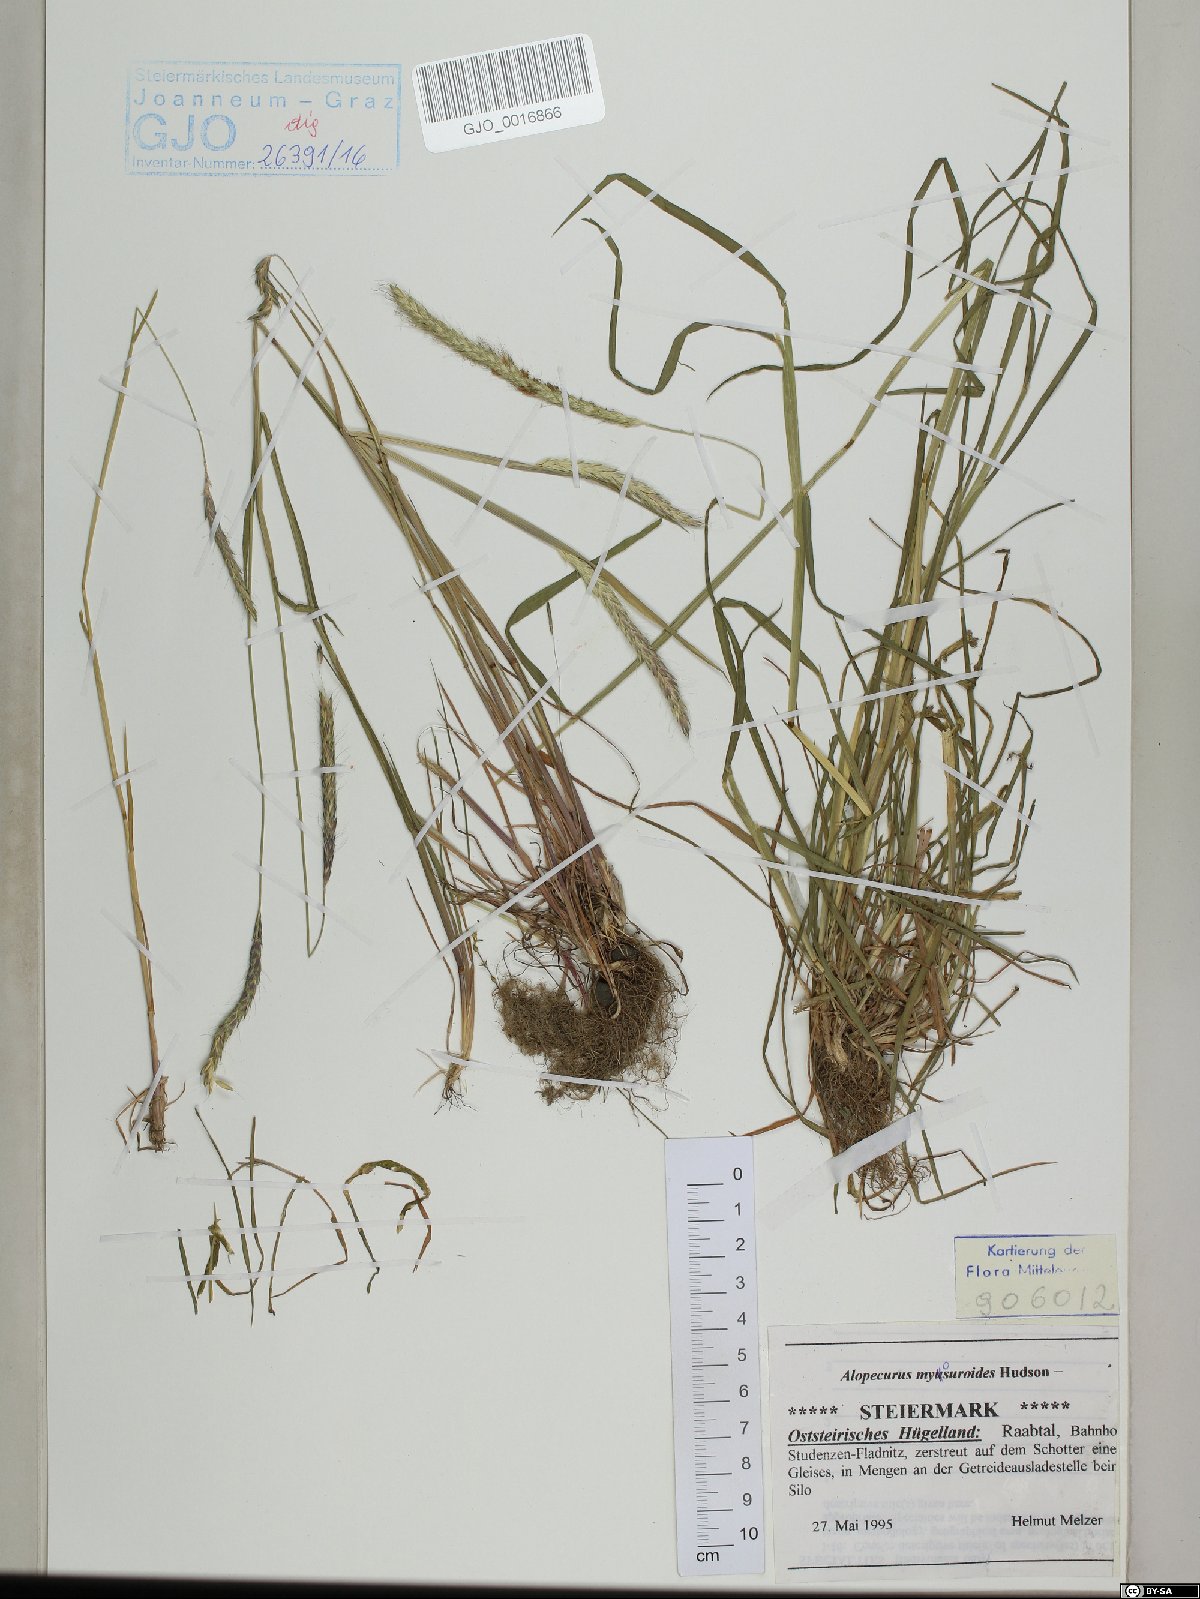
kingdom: Plantae
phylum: Tracheophyta
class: Liliopsida
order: Poales
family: Poaceae
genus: Alopecurus
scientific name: Alopecurus myosuroides
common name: Black-grass
